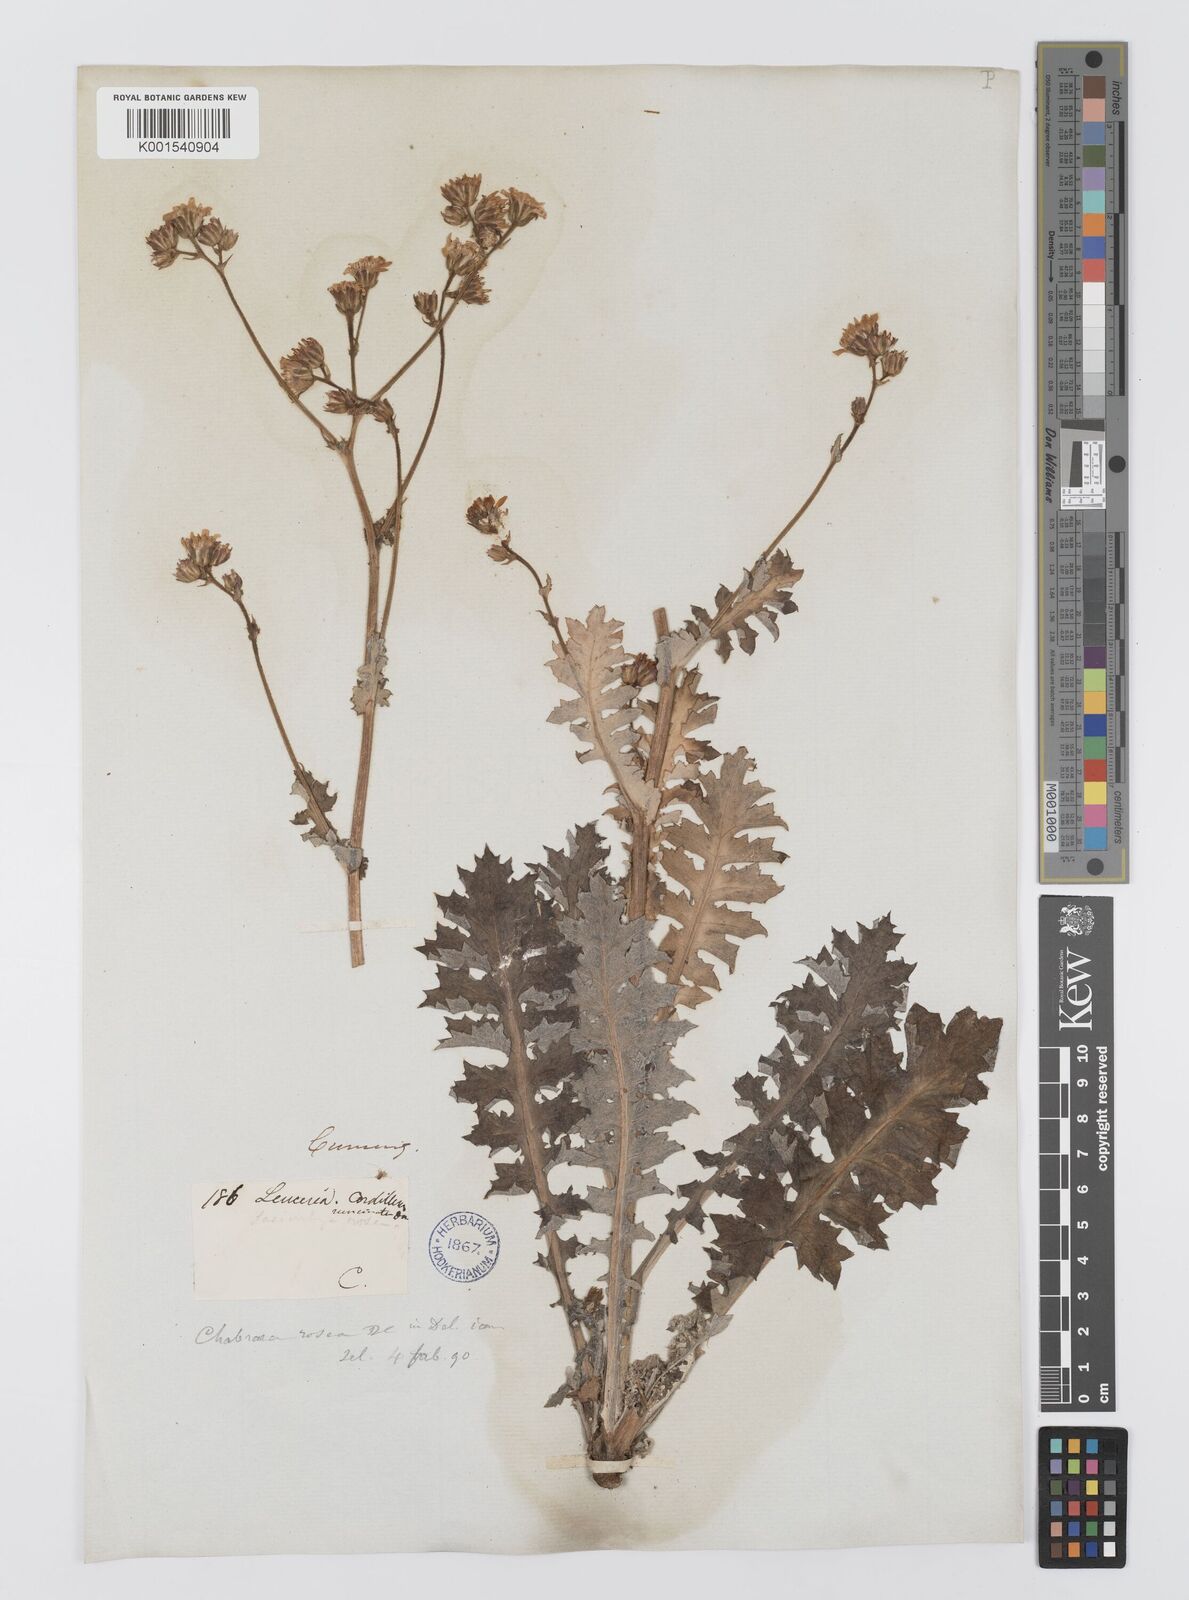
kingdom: Plantae
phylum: Tracheophyta
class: Magnoliopsida
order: Asterales
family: Asteraceae
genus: Leucheria
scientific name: Leucheria rosea
